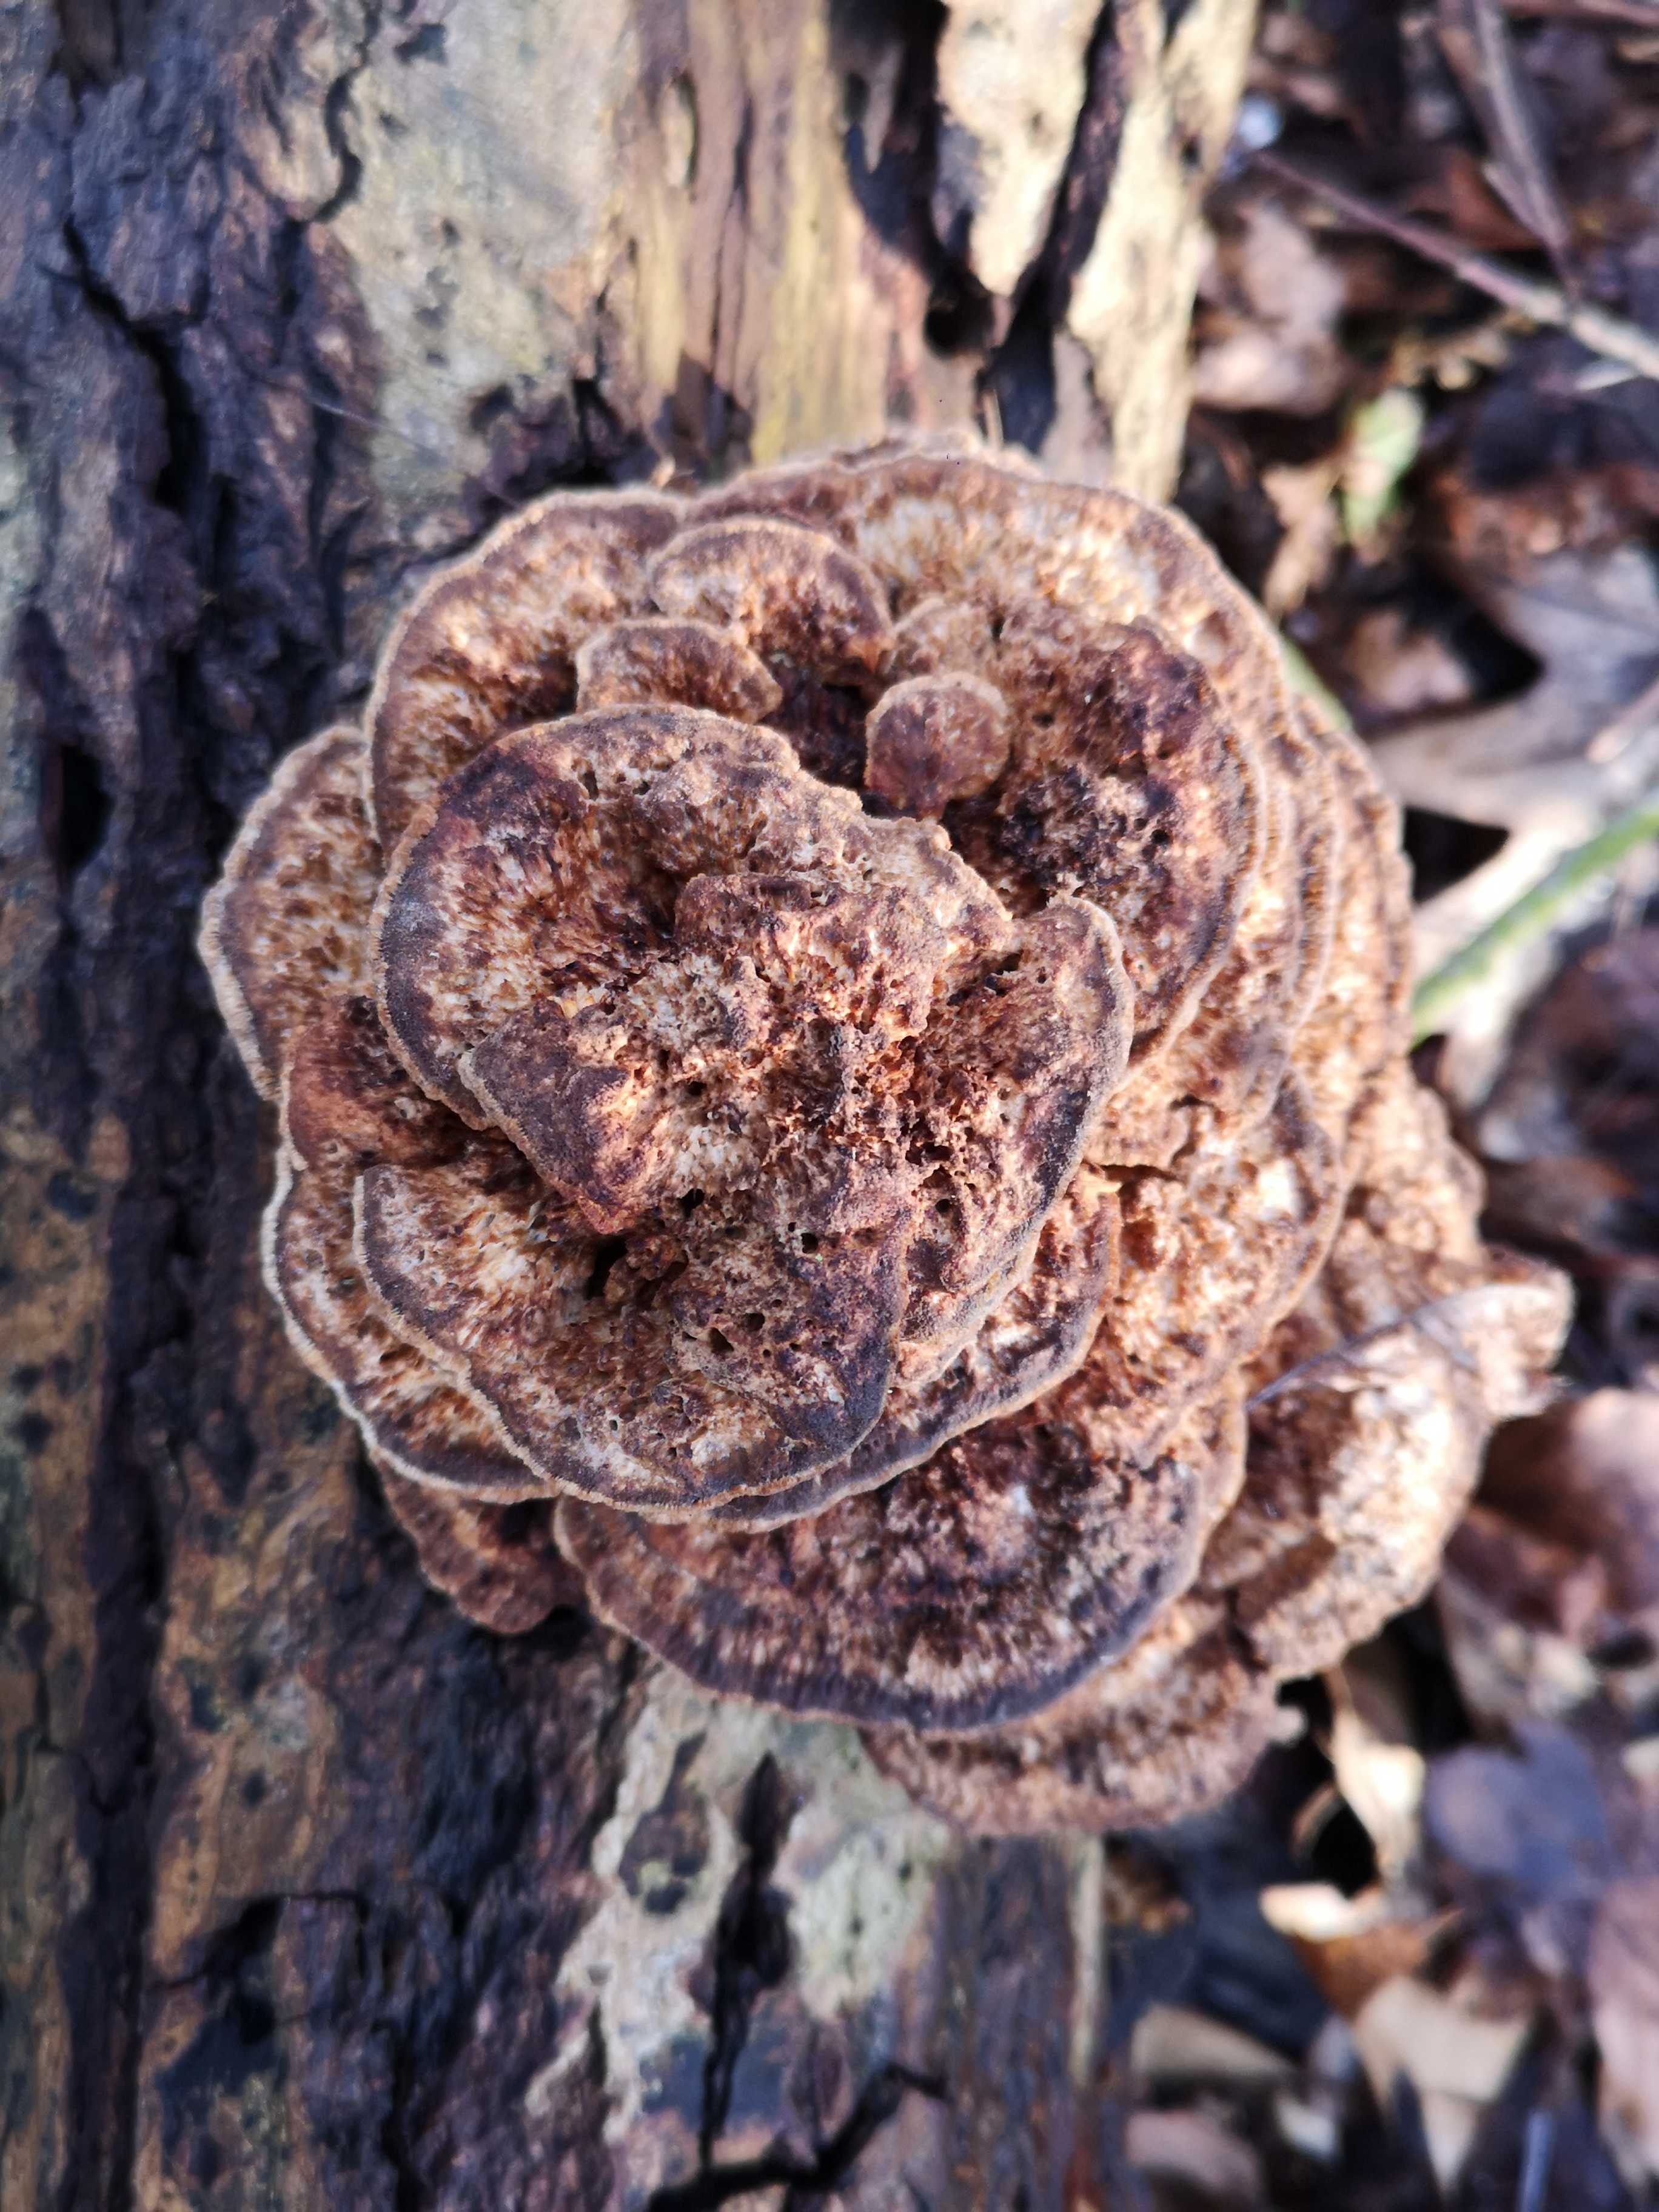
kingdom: Fungi
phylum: Basidiomycota
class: Agaricomycetes
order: Polyporales
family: Polyporaceae
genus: Daedaleopsis
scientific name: Daedaleopsis confragosa
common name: rødmende læderporesvamp
